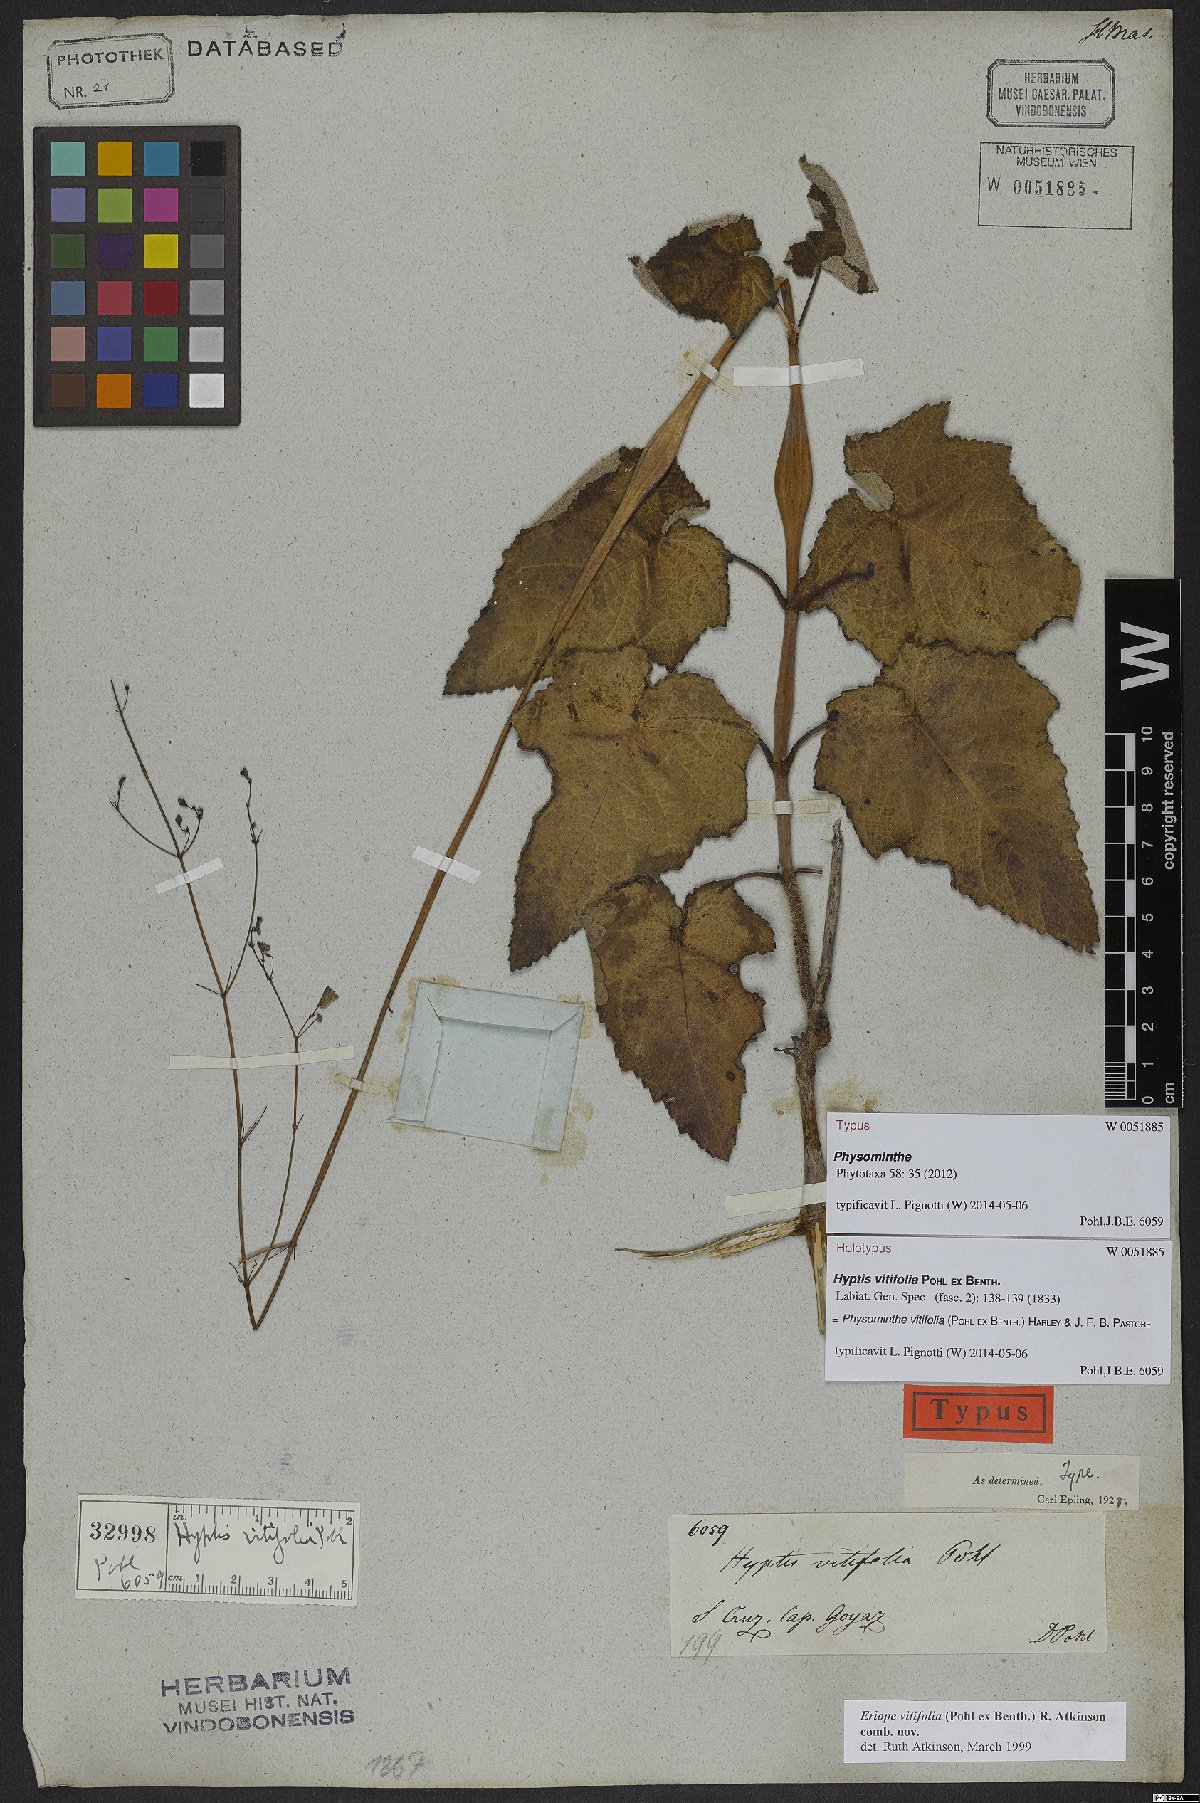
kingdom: Plantae
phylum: Tracheophyta
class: Magnoliopsida
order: Lamiales
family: Lamiaceae
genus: Physominthe
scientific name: Physominthe vitifolia
